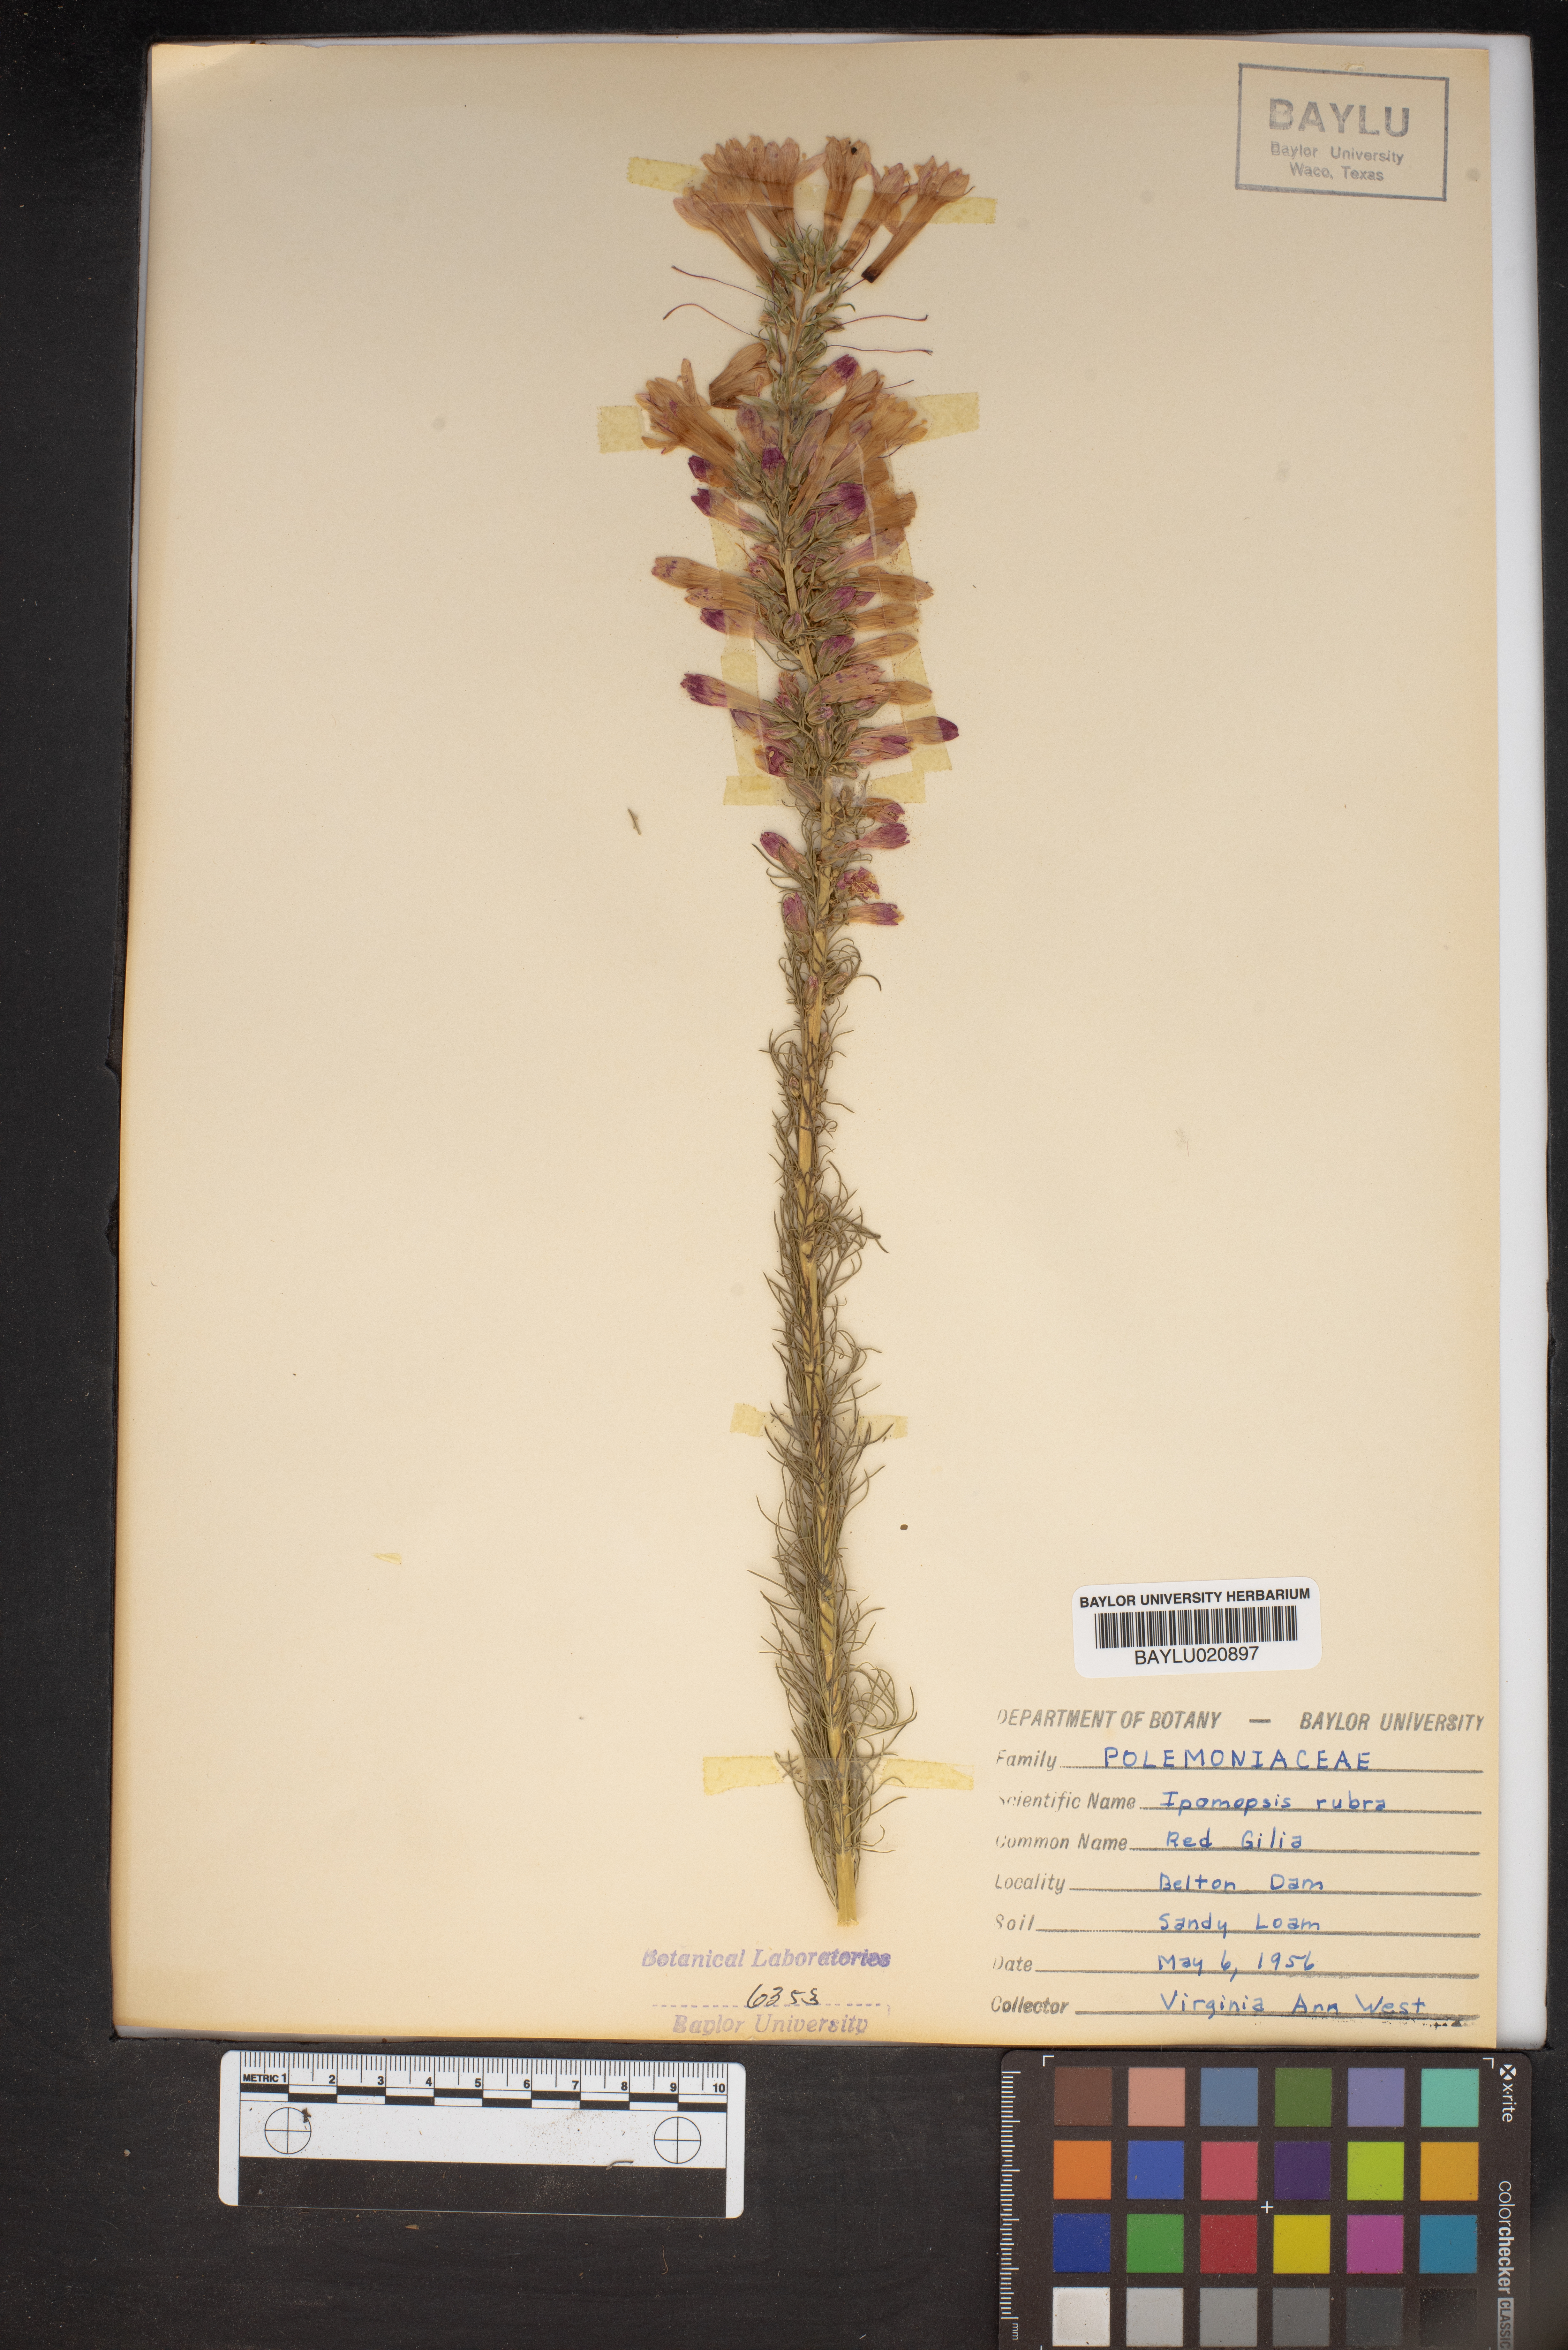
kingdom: Plantae
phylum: Tracheophyta
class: Magnoliopsida
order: Ericales
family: Polemoniaceae
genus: Ipomopsis
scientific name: Ipomopsis rubra
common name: Skyrocket
